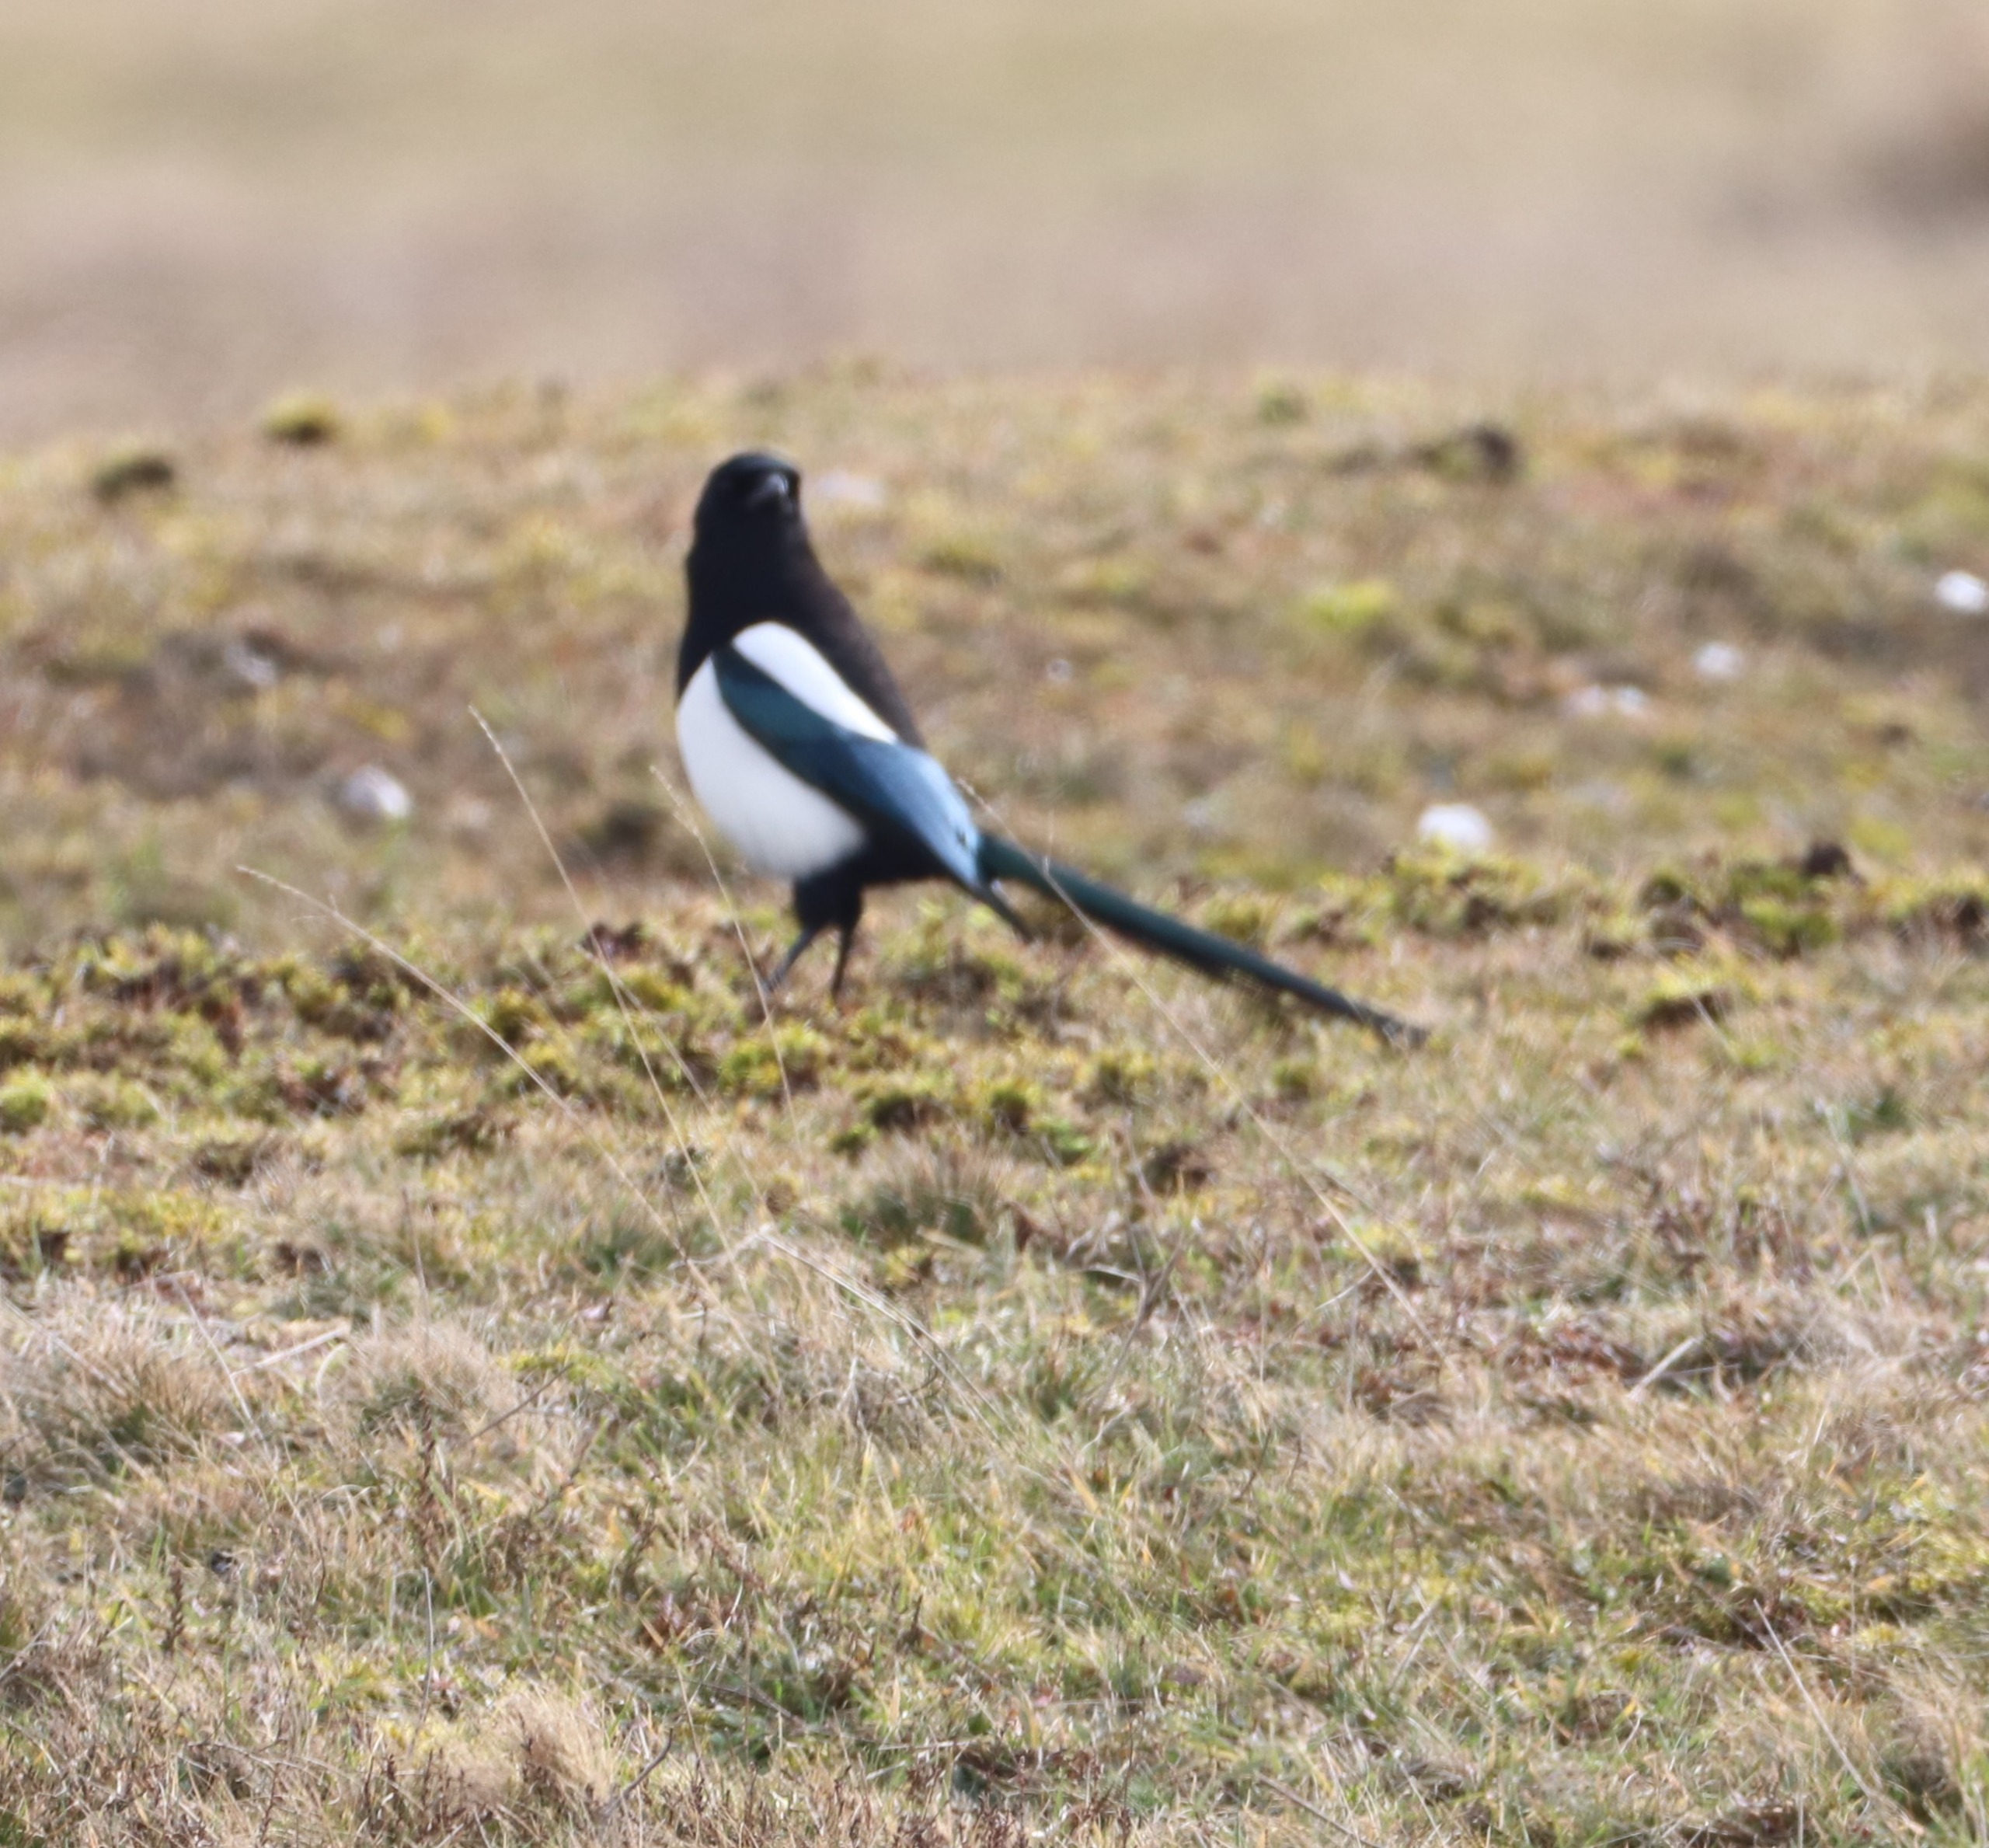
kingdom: Animalia
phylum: Chordata
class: Aves
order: Passeriformes
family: Corvidae
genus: Pica
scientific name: Pica pica
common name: Husskade
